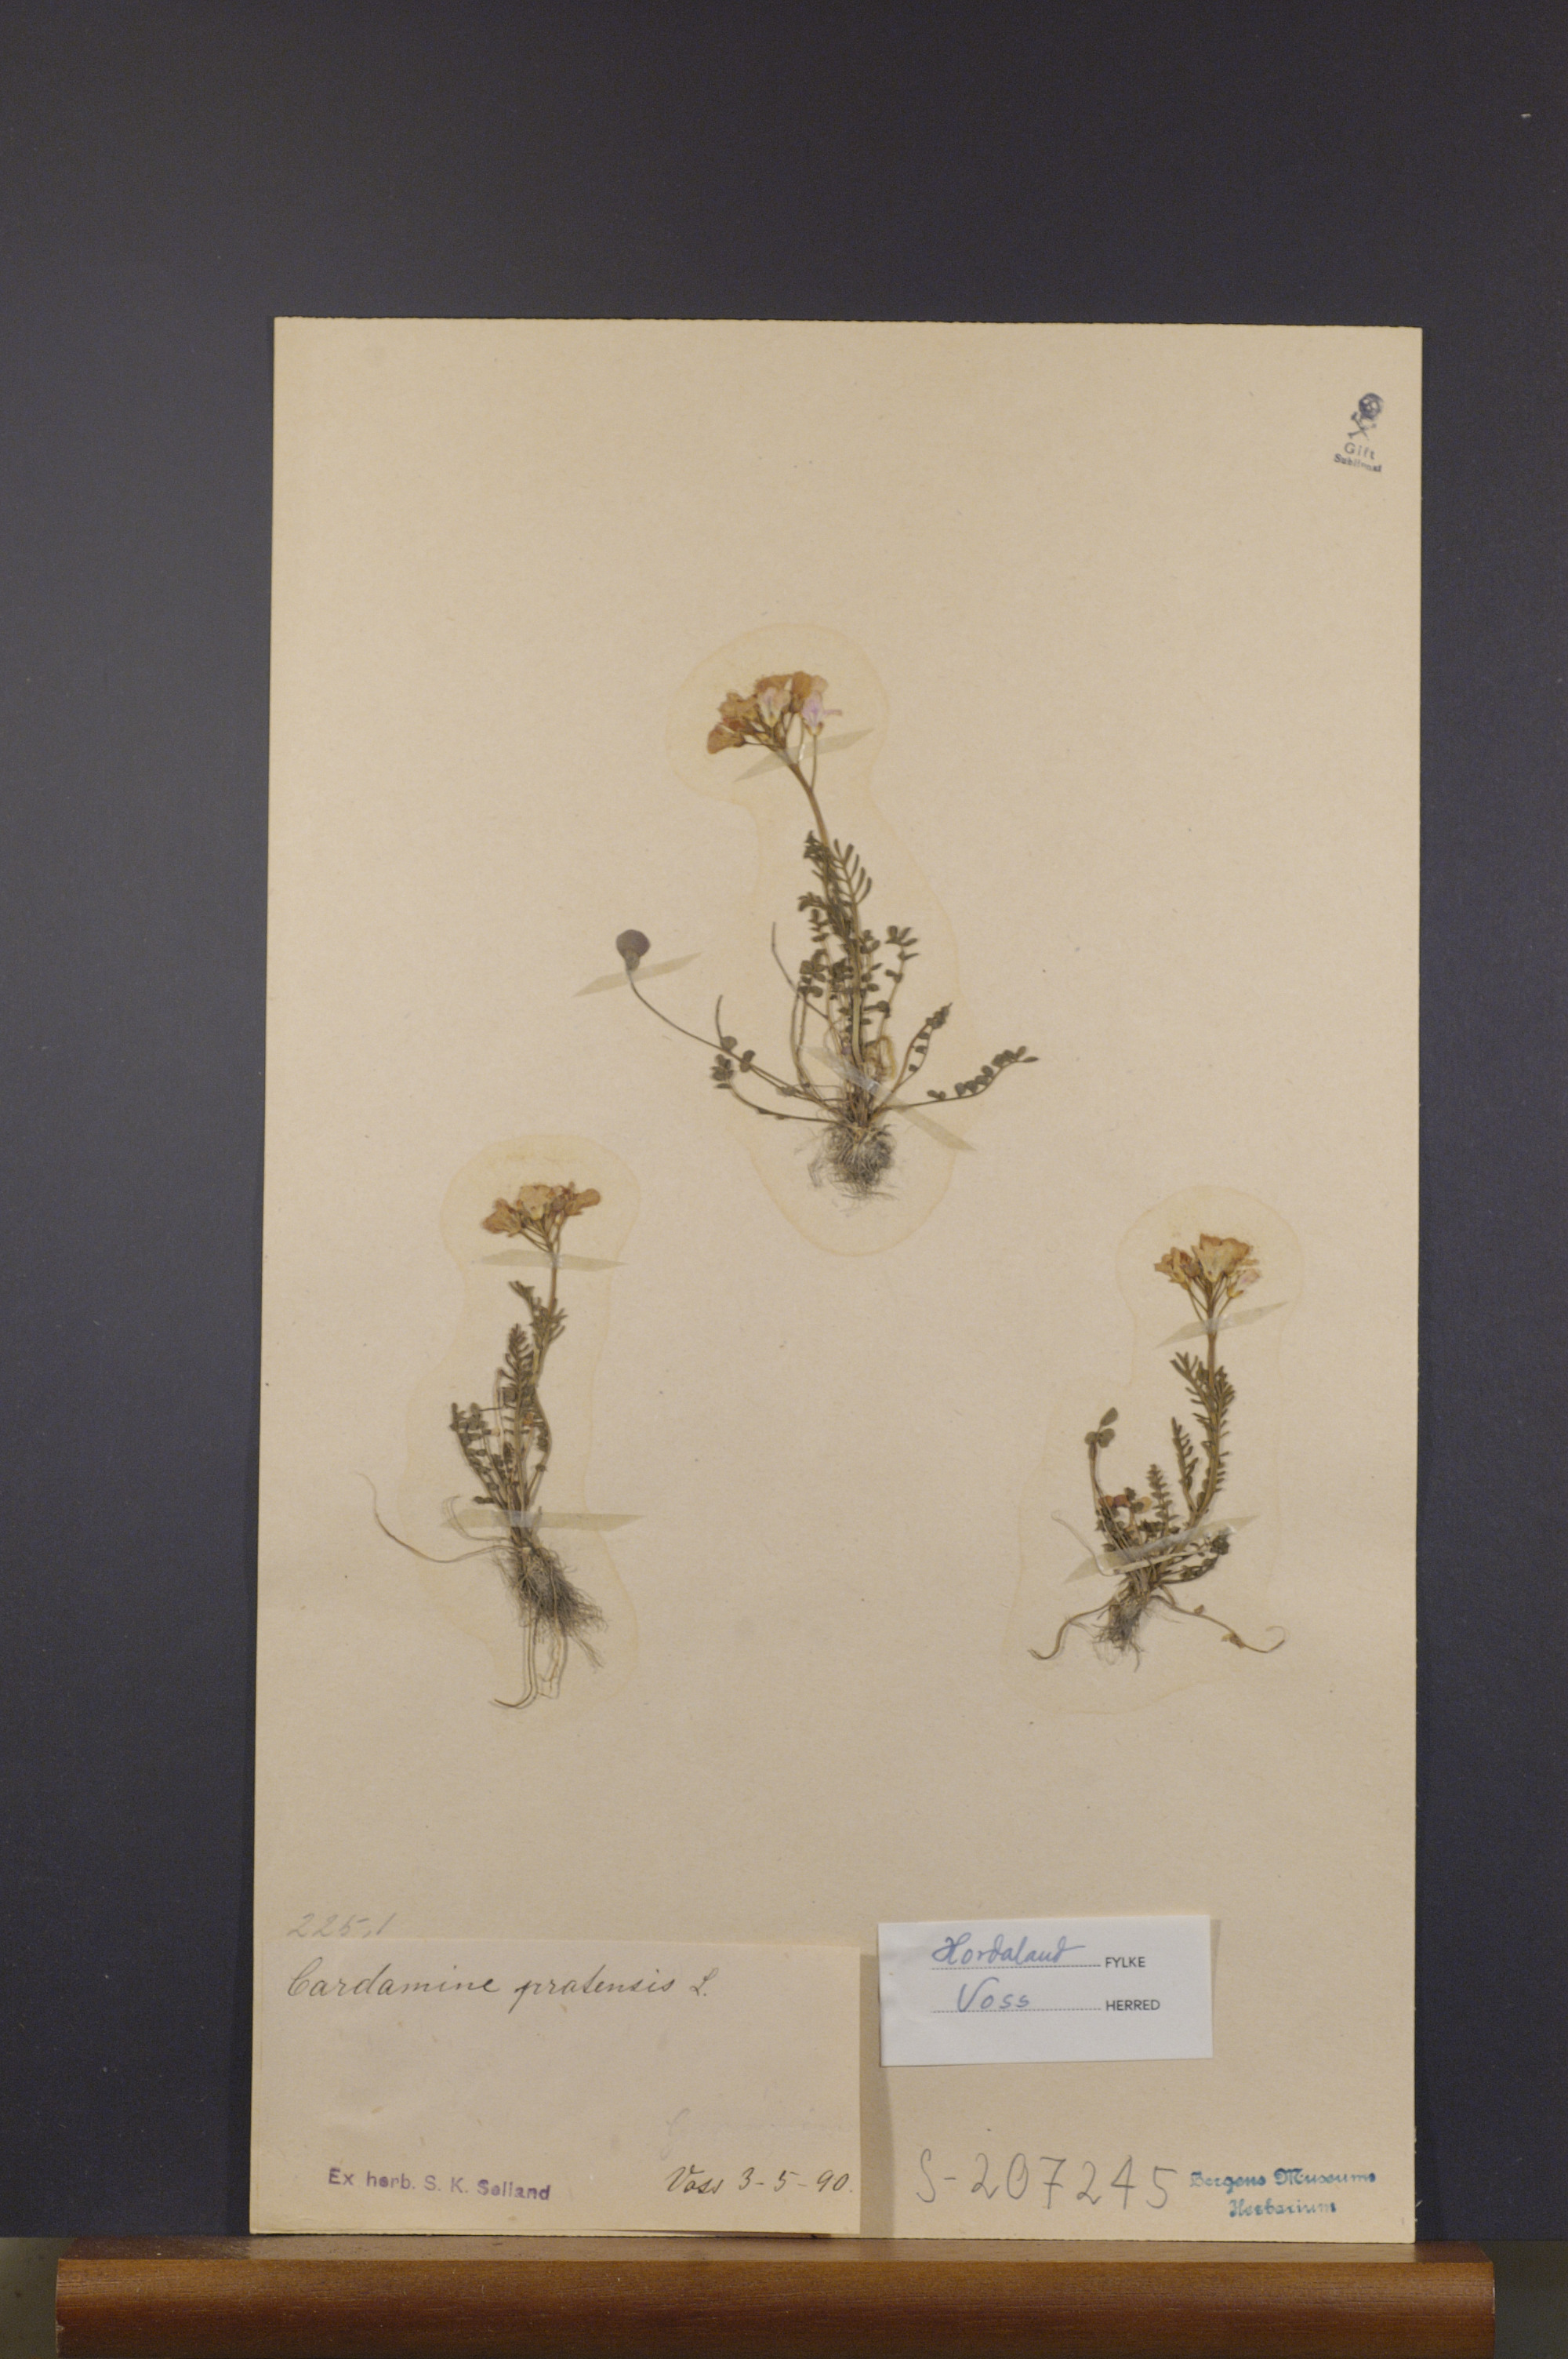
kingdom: Plantae
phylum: Tracheophyta
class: Magnoliopsida
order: Brassicales
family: Brassicaceae
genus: Cardamine
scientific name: Cardamine pratensis
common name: Cuckoo flower
